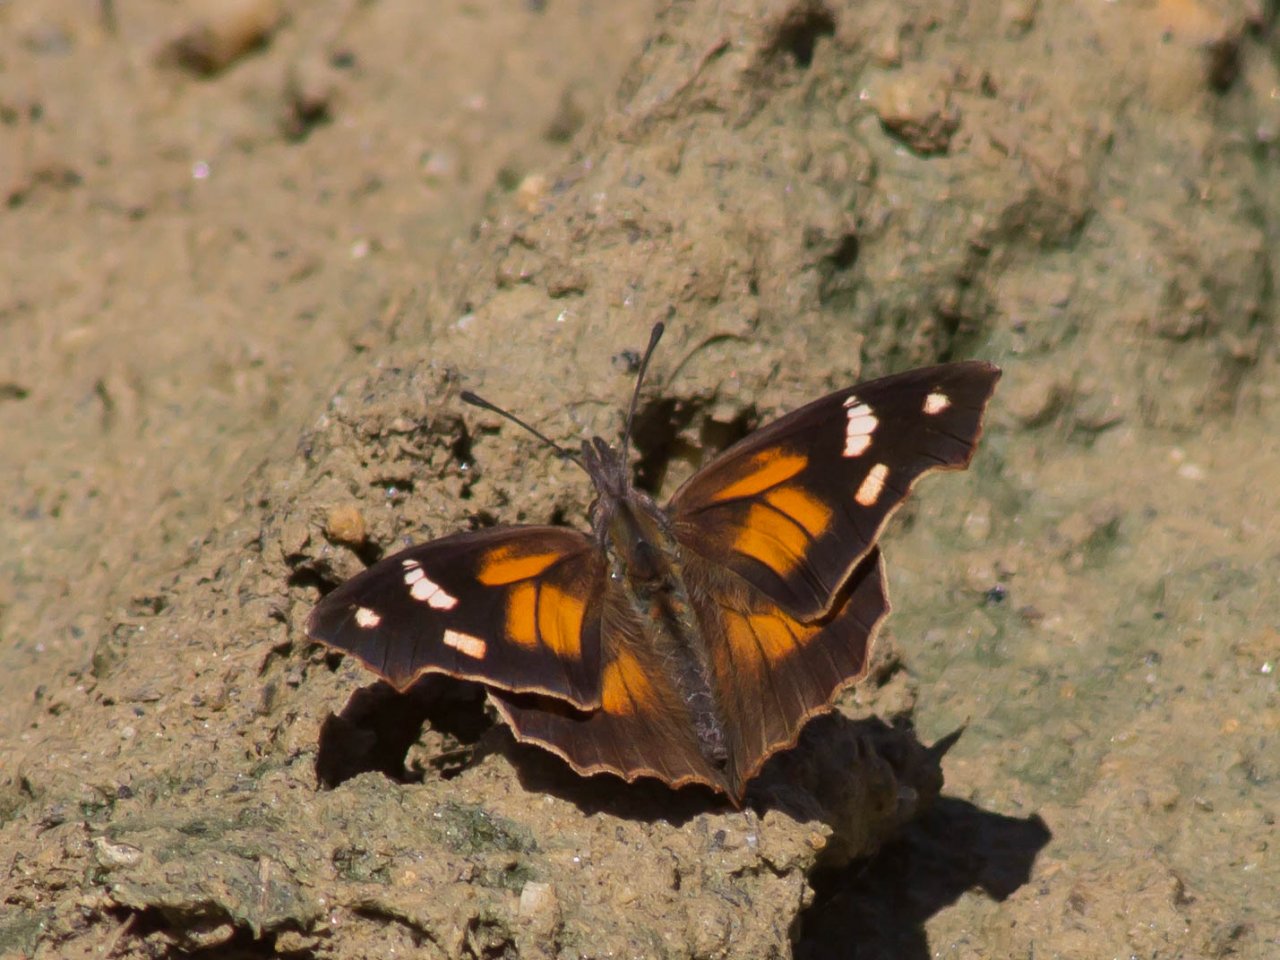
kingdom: Animalia
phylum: Arthropoda
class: Insecta
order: Lepidoptera
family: Nymphalidae
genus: Libytheana
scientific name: Libytheana carinenta
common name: American Snout
